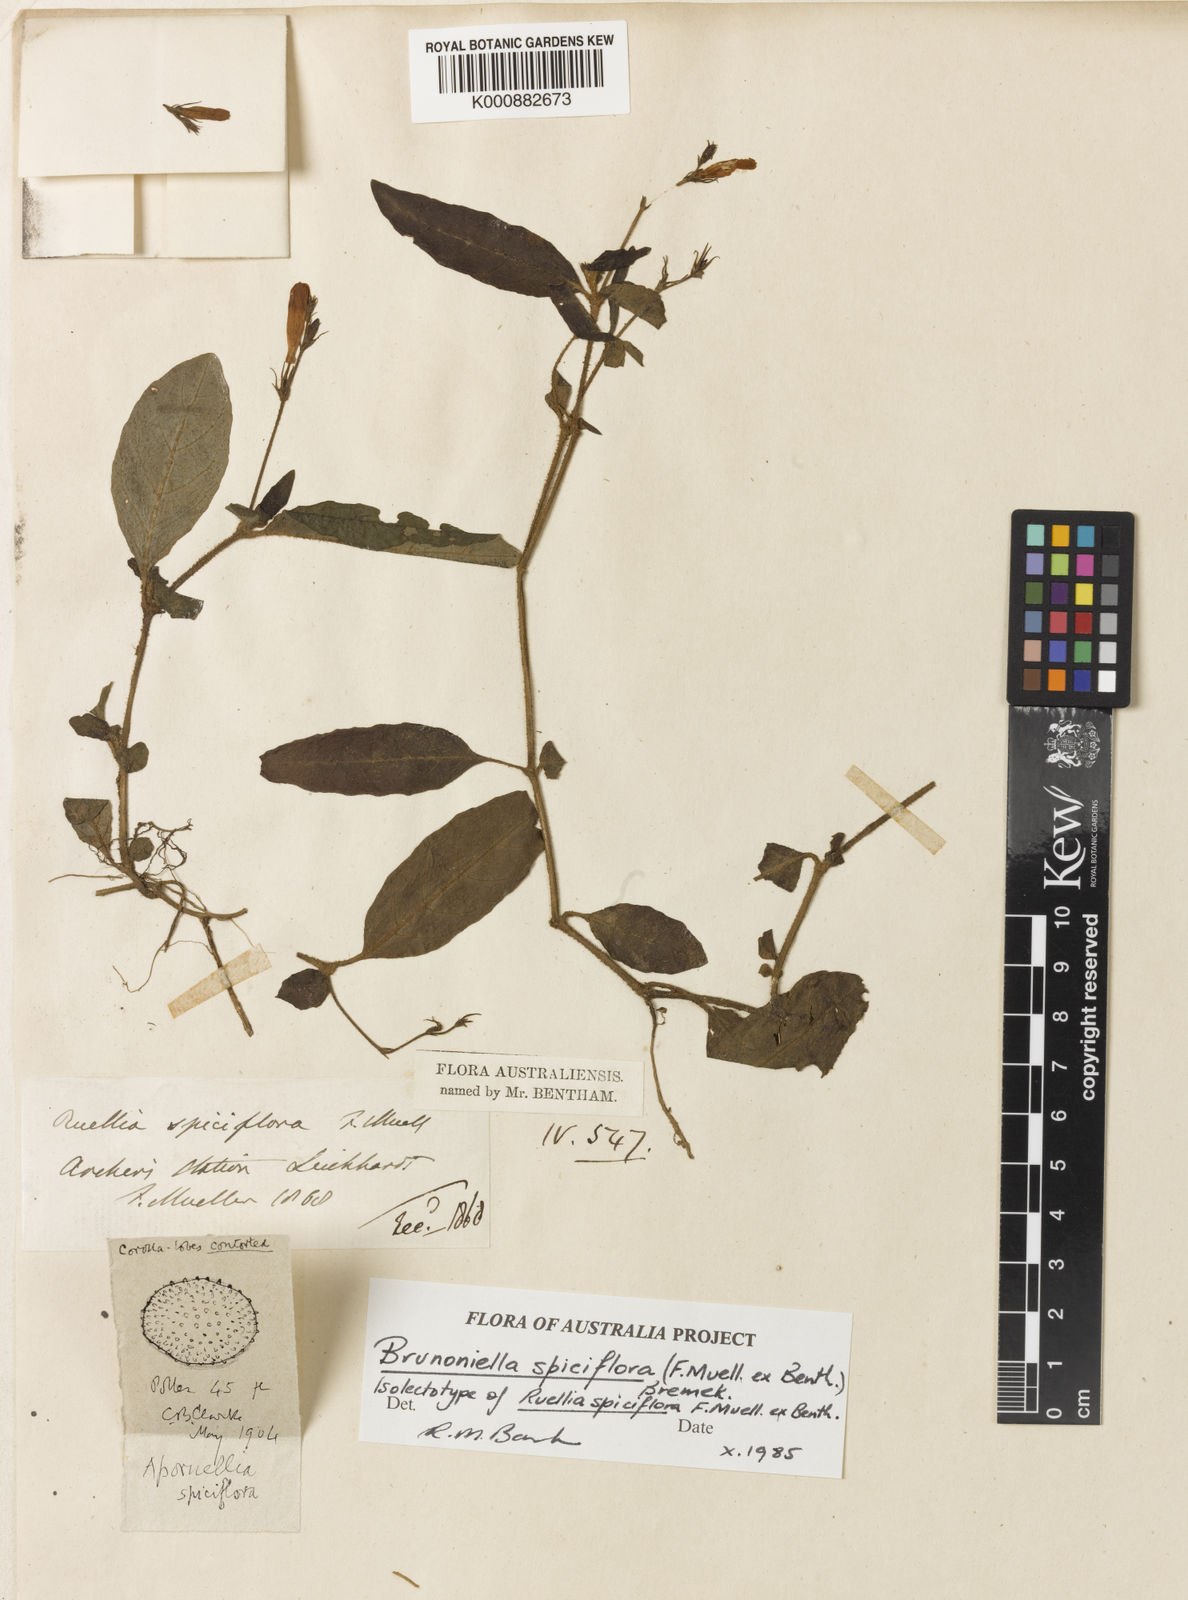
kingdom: Plantae
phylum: Tracheophyta
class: Magnoliopsida
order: Lamiales
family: Acanthaceae
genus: Brunoniella
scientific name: Brunoniella spiciflora
